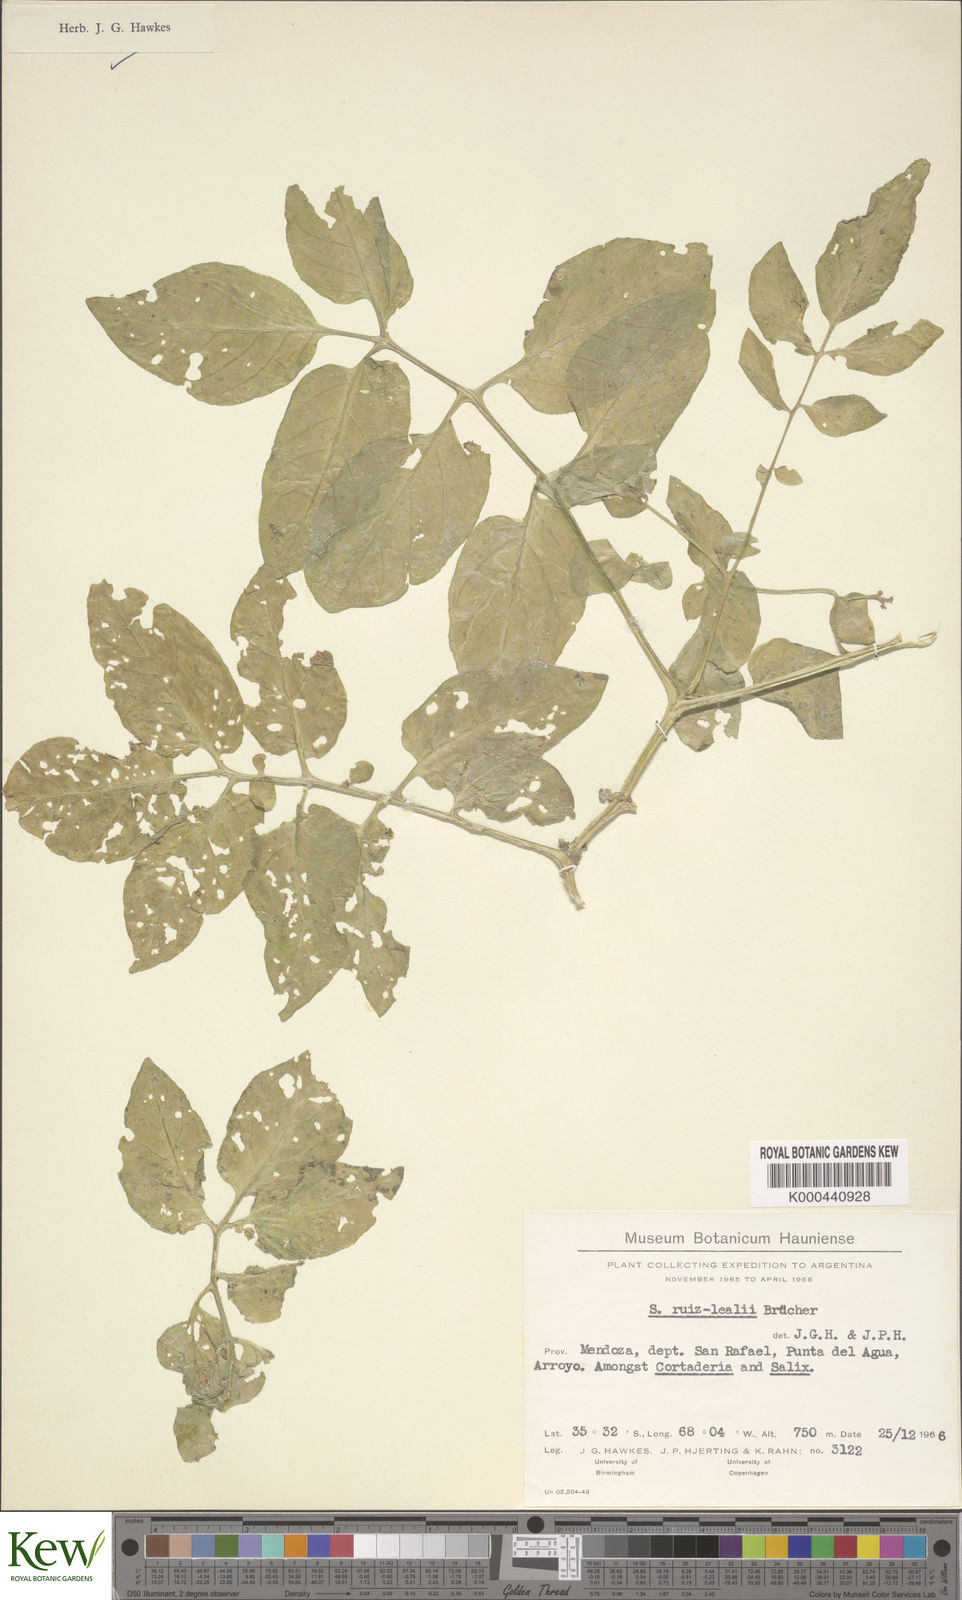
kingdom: Plantae
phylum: Tracheophyta
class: Magnoliopsida
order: Solanales
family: Solanaceae
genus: Solanum
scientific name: Solanum
